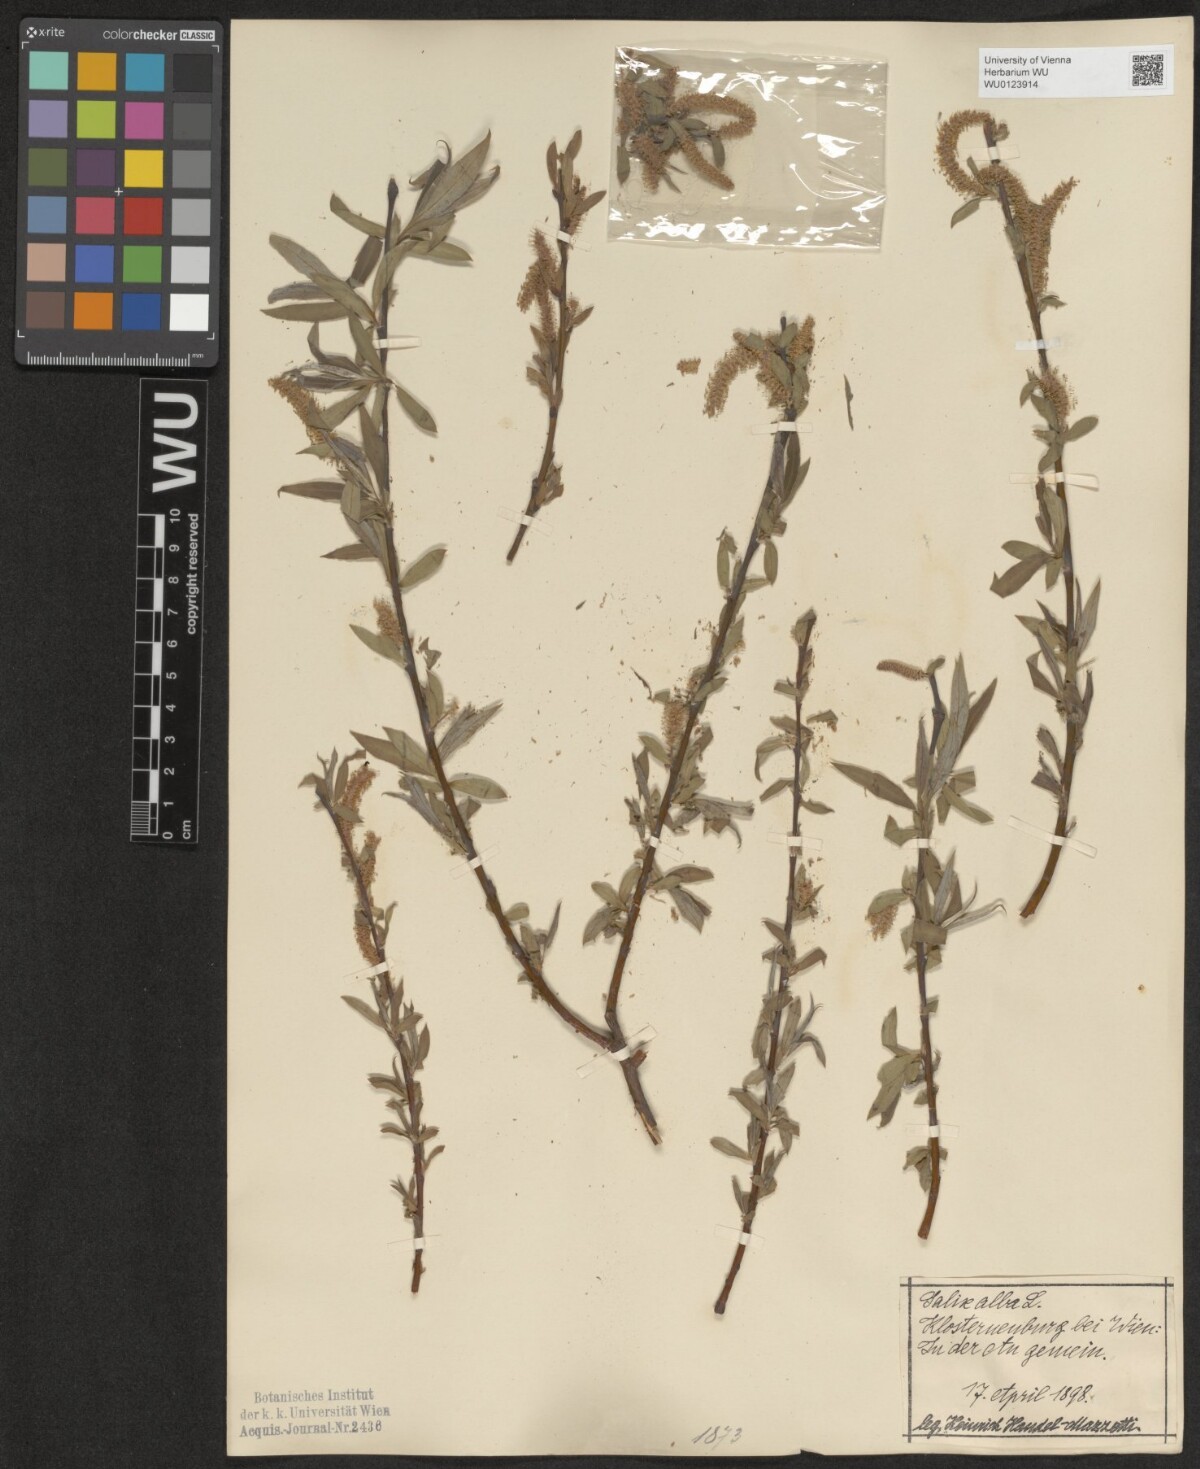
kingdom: Plantae
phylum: Tracheophyta
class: Magnoliopsida
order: Malpighiales
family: Salicaceae
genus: Salix
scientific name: Salix alba
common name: White willow
